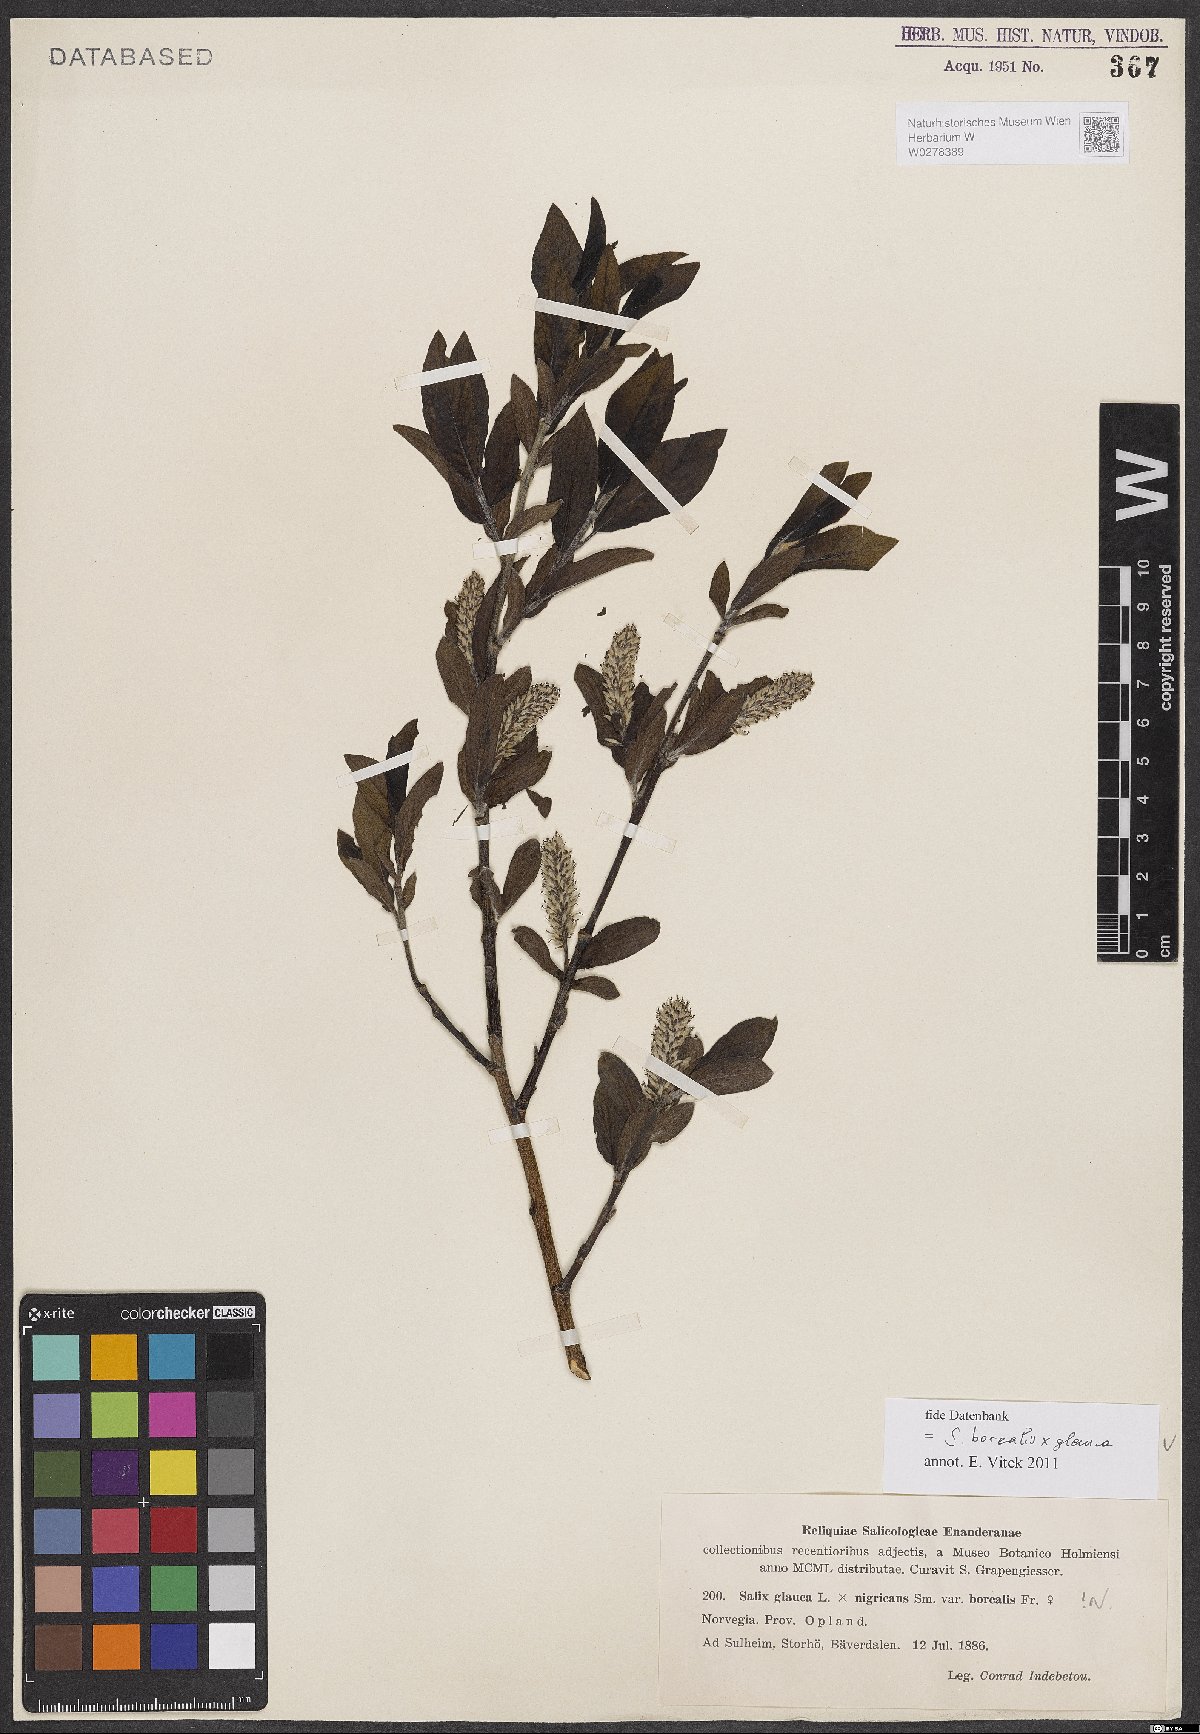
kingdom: Plantae
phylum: Tracheophyta
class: Magnoliopsida
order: Malpighiales
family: Salicaceae
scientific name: Salicaceae
